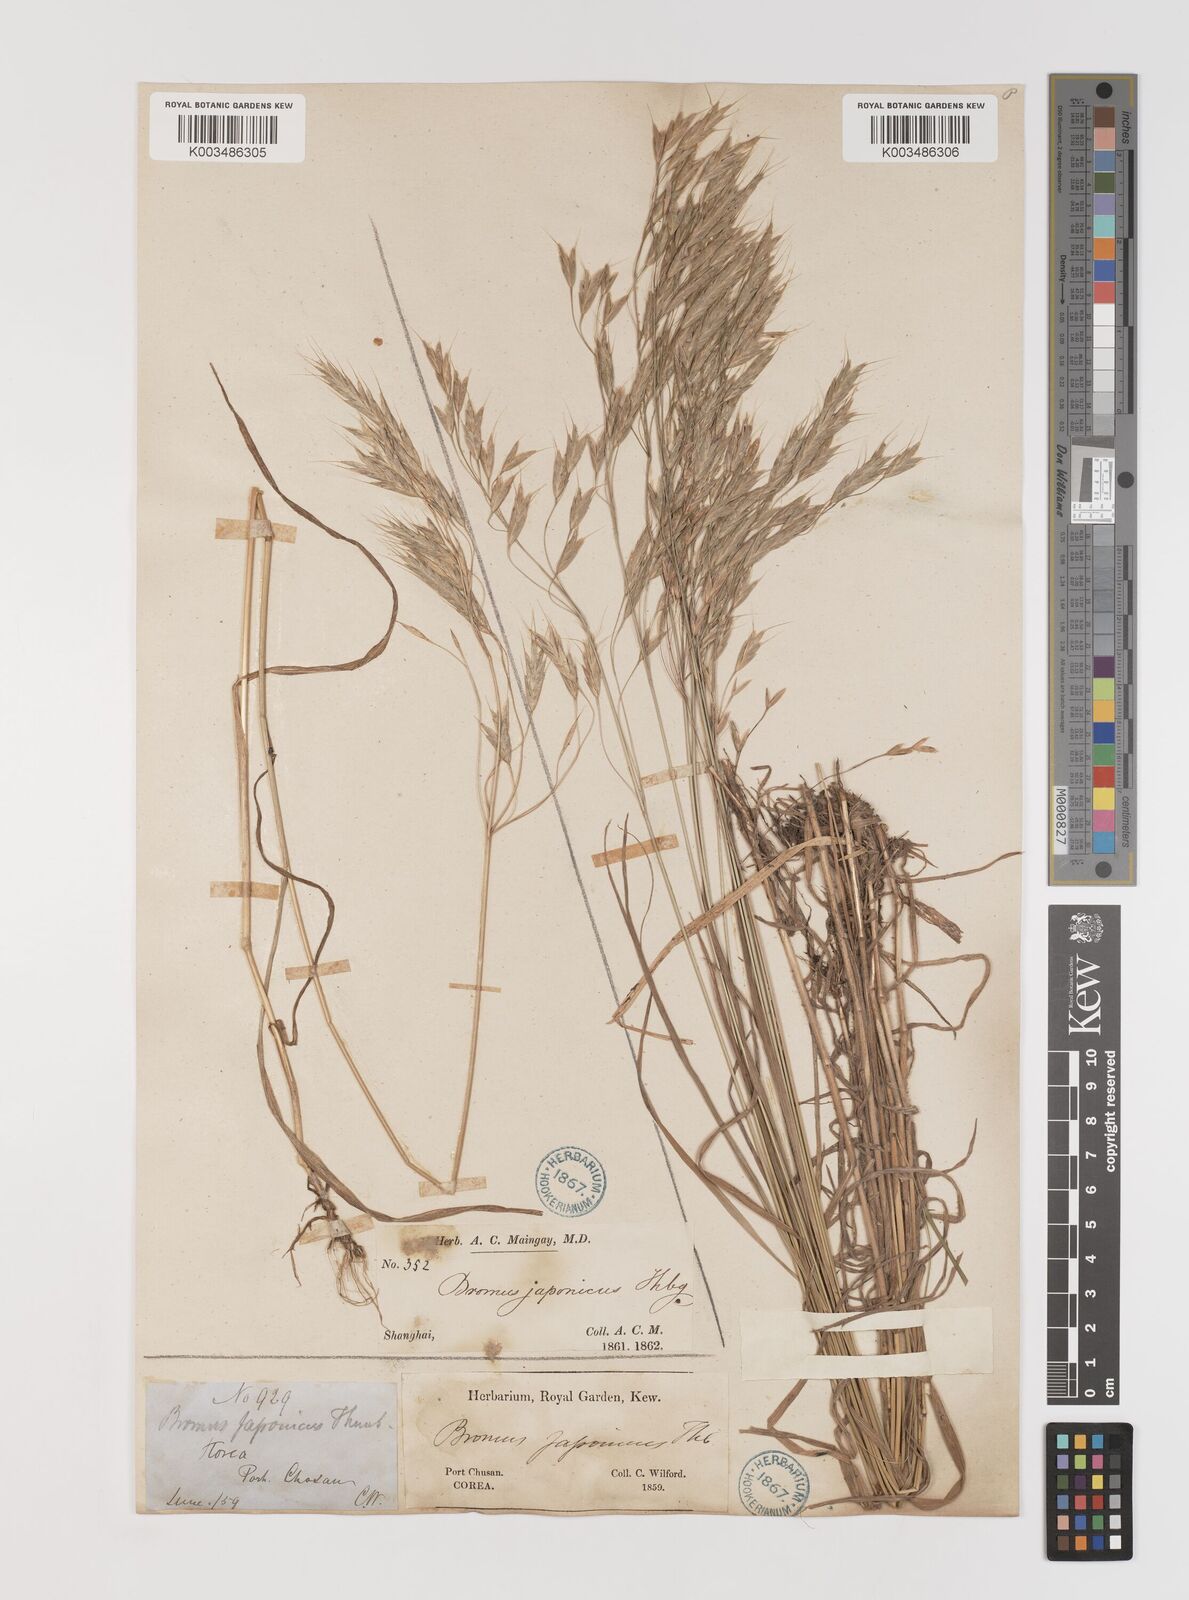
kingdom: Plantae
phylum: Tracheophyta
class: Liliopsida
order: Poales
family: Poaceae
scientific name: Poaceae
